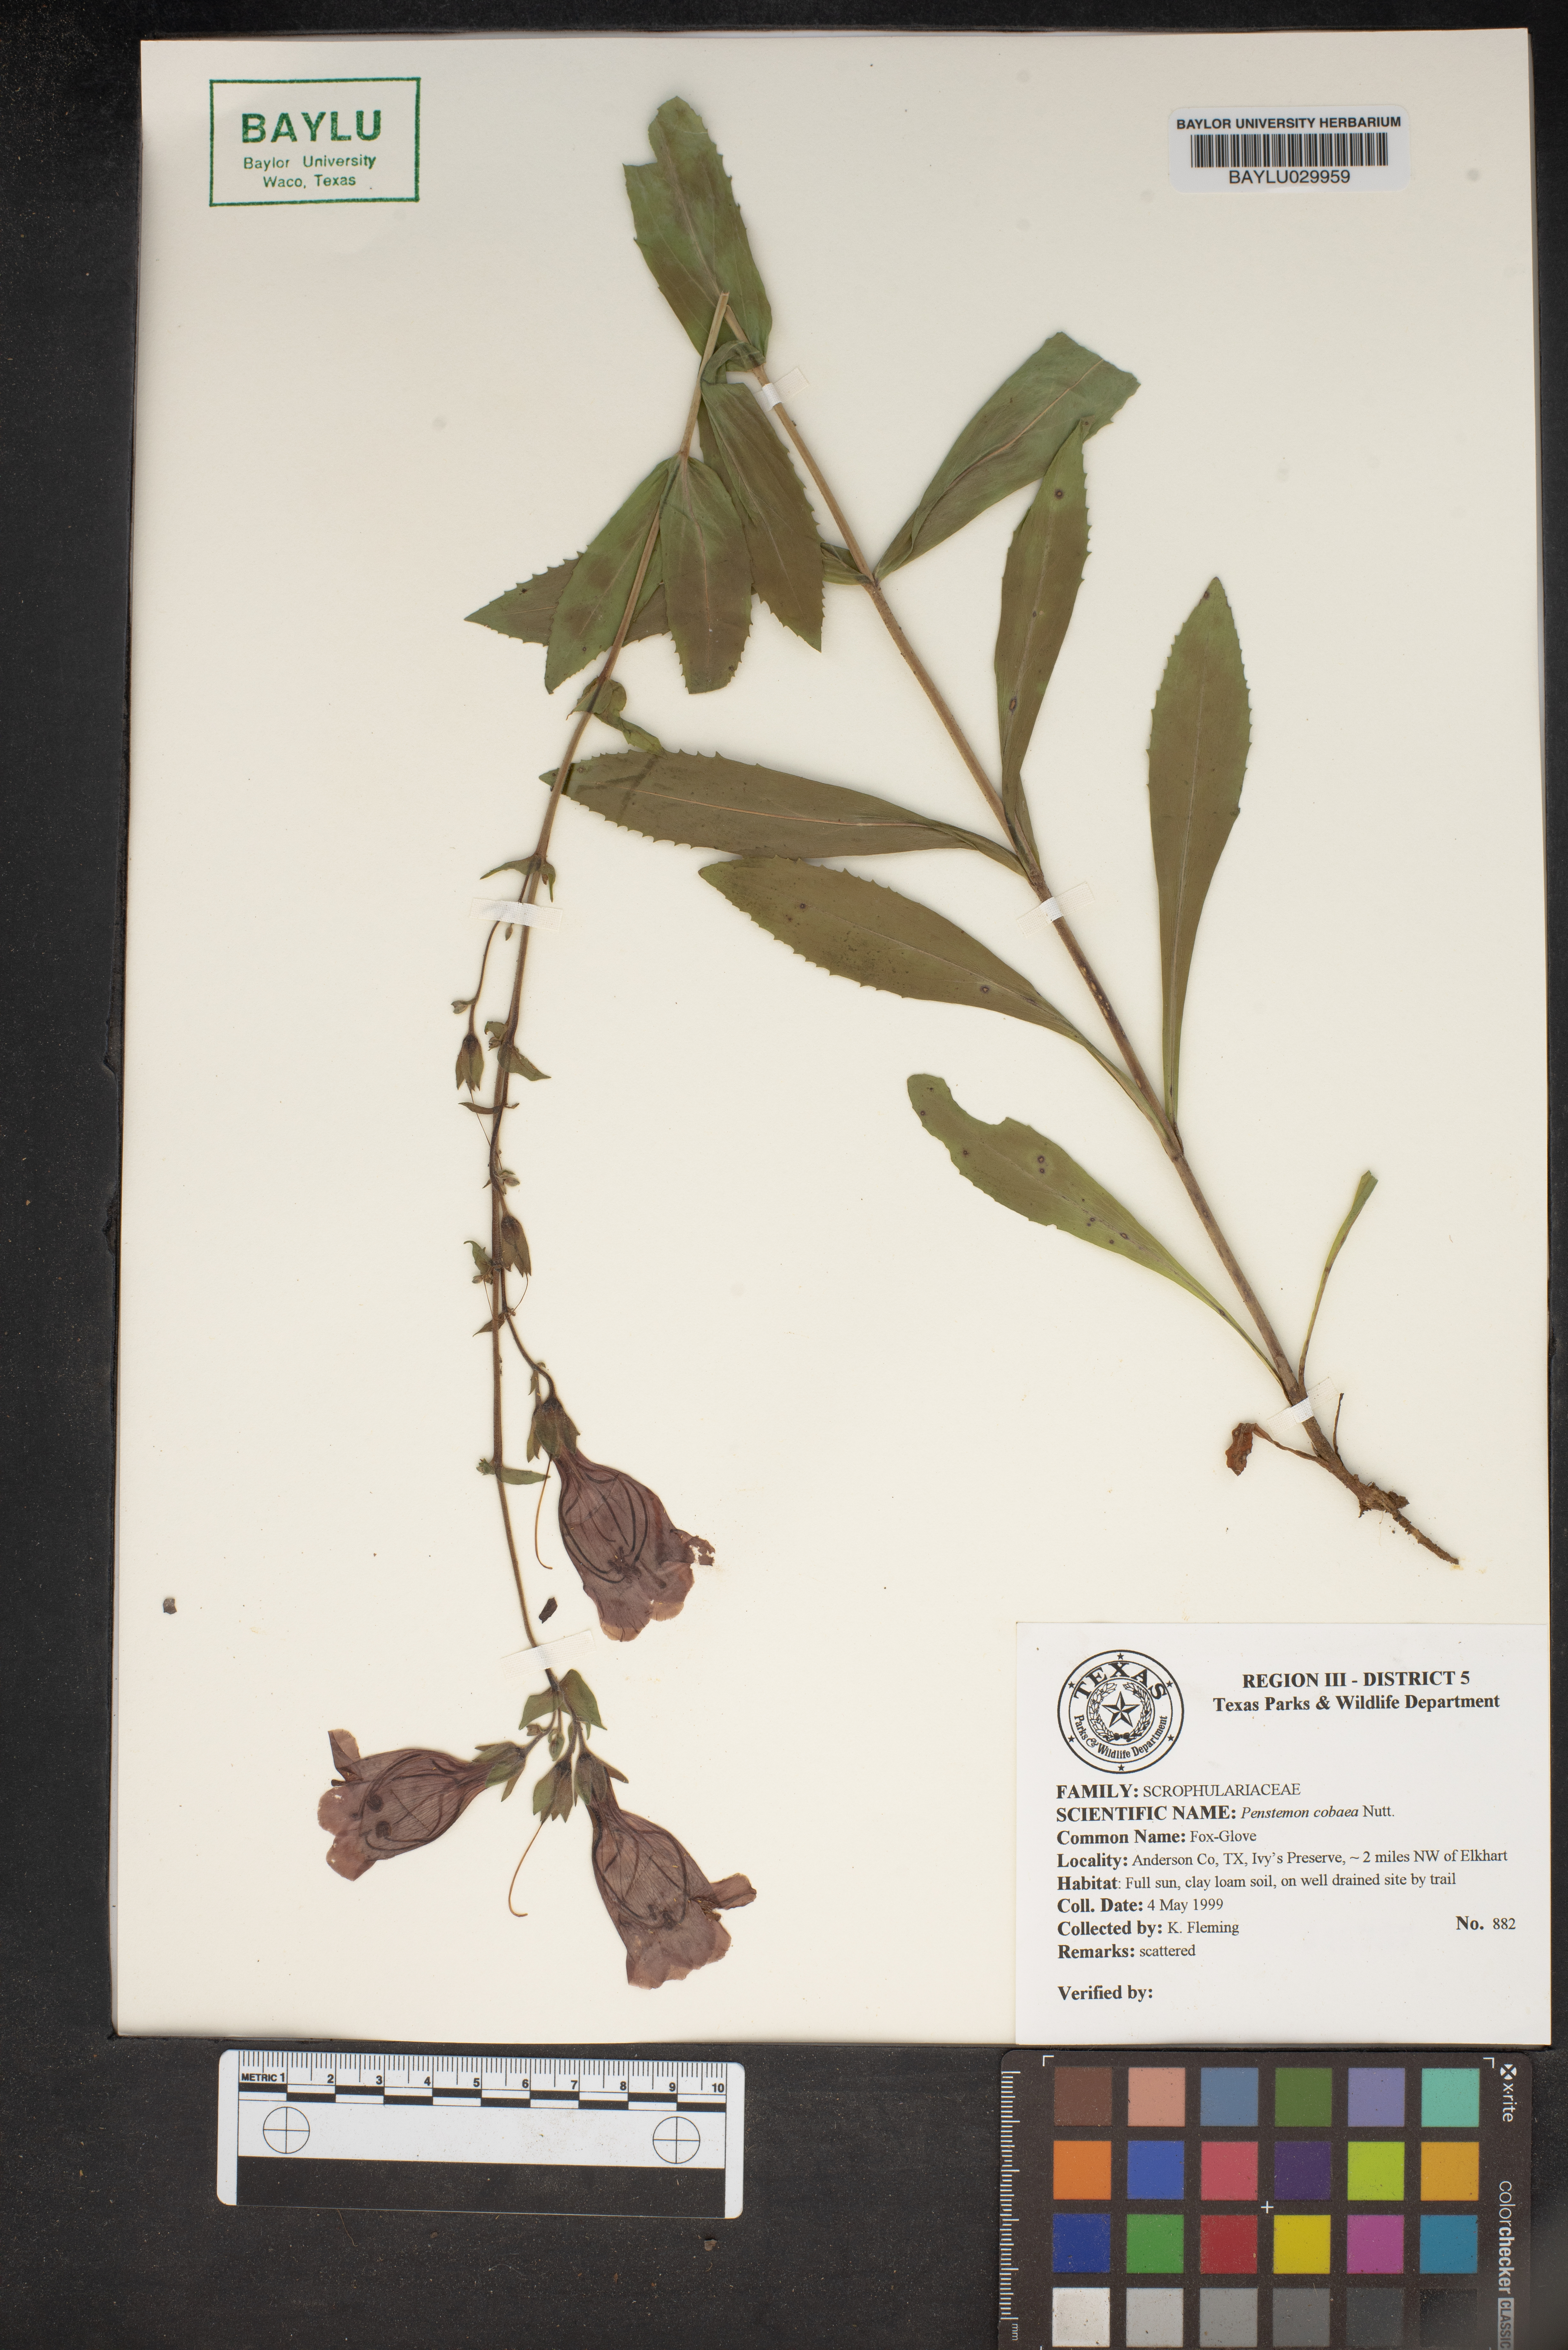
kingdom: Plantae
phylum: Tracheophyta
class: Magnoliopsida
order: Lamiales
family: Plantaginaceae
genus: Penstemon
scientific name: Penstemon cobaea
